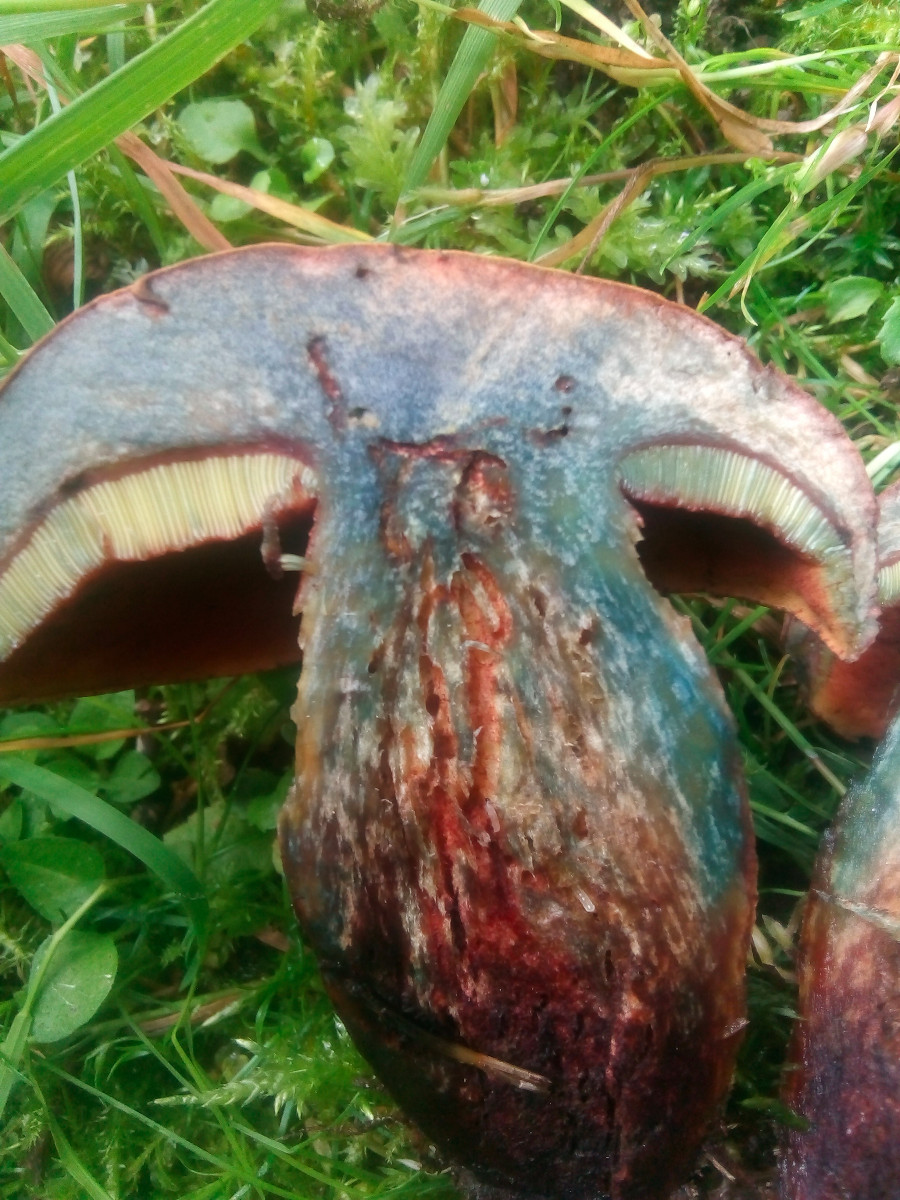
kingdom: Fungi
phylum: Basidiomycota
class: Agaricomycetes
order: Boletales
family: Boletaceae
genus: Suillellus
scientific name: Suillellus luridus
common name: netstokket indigorørhat
